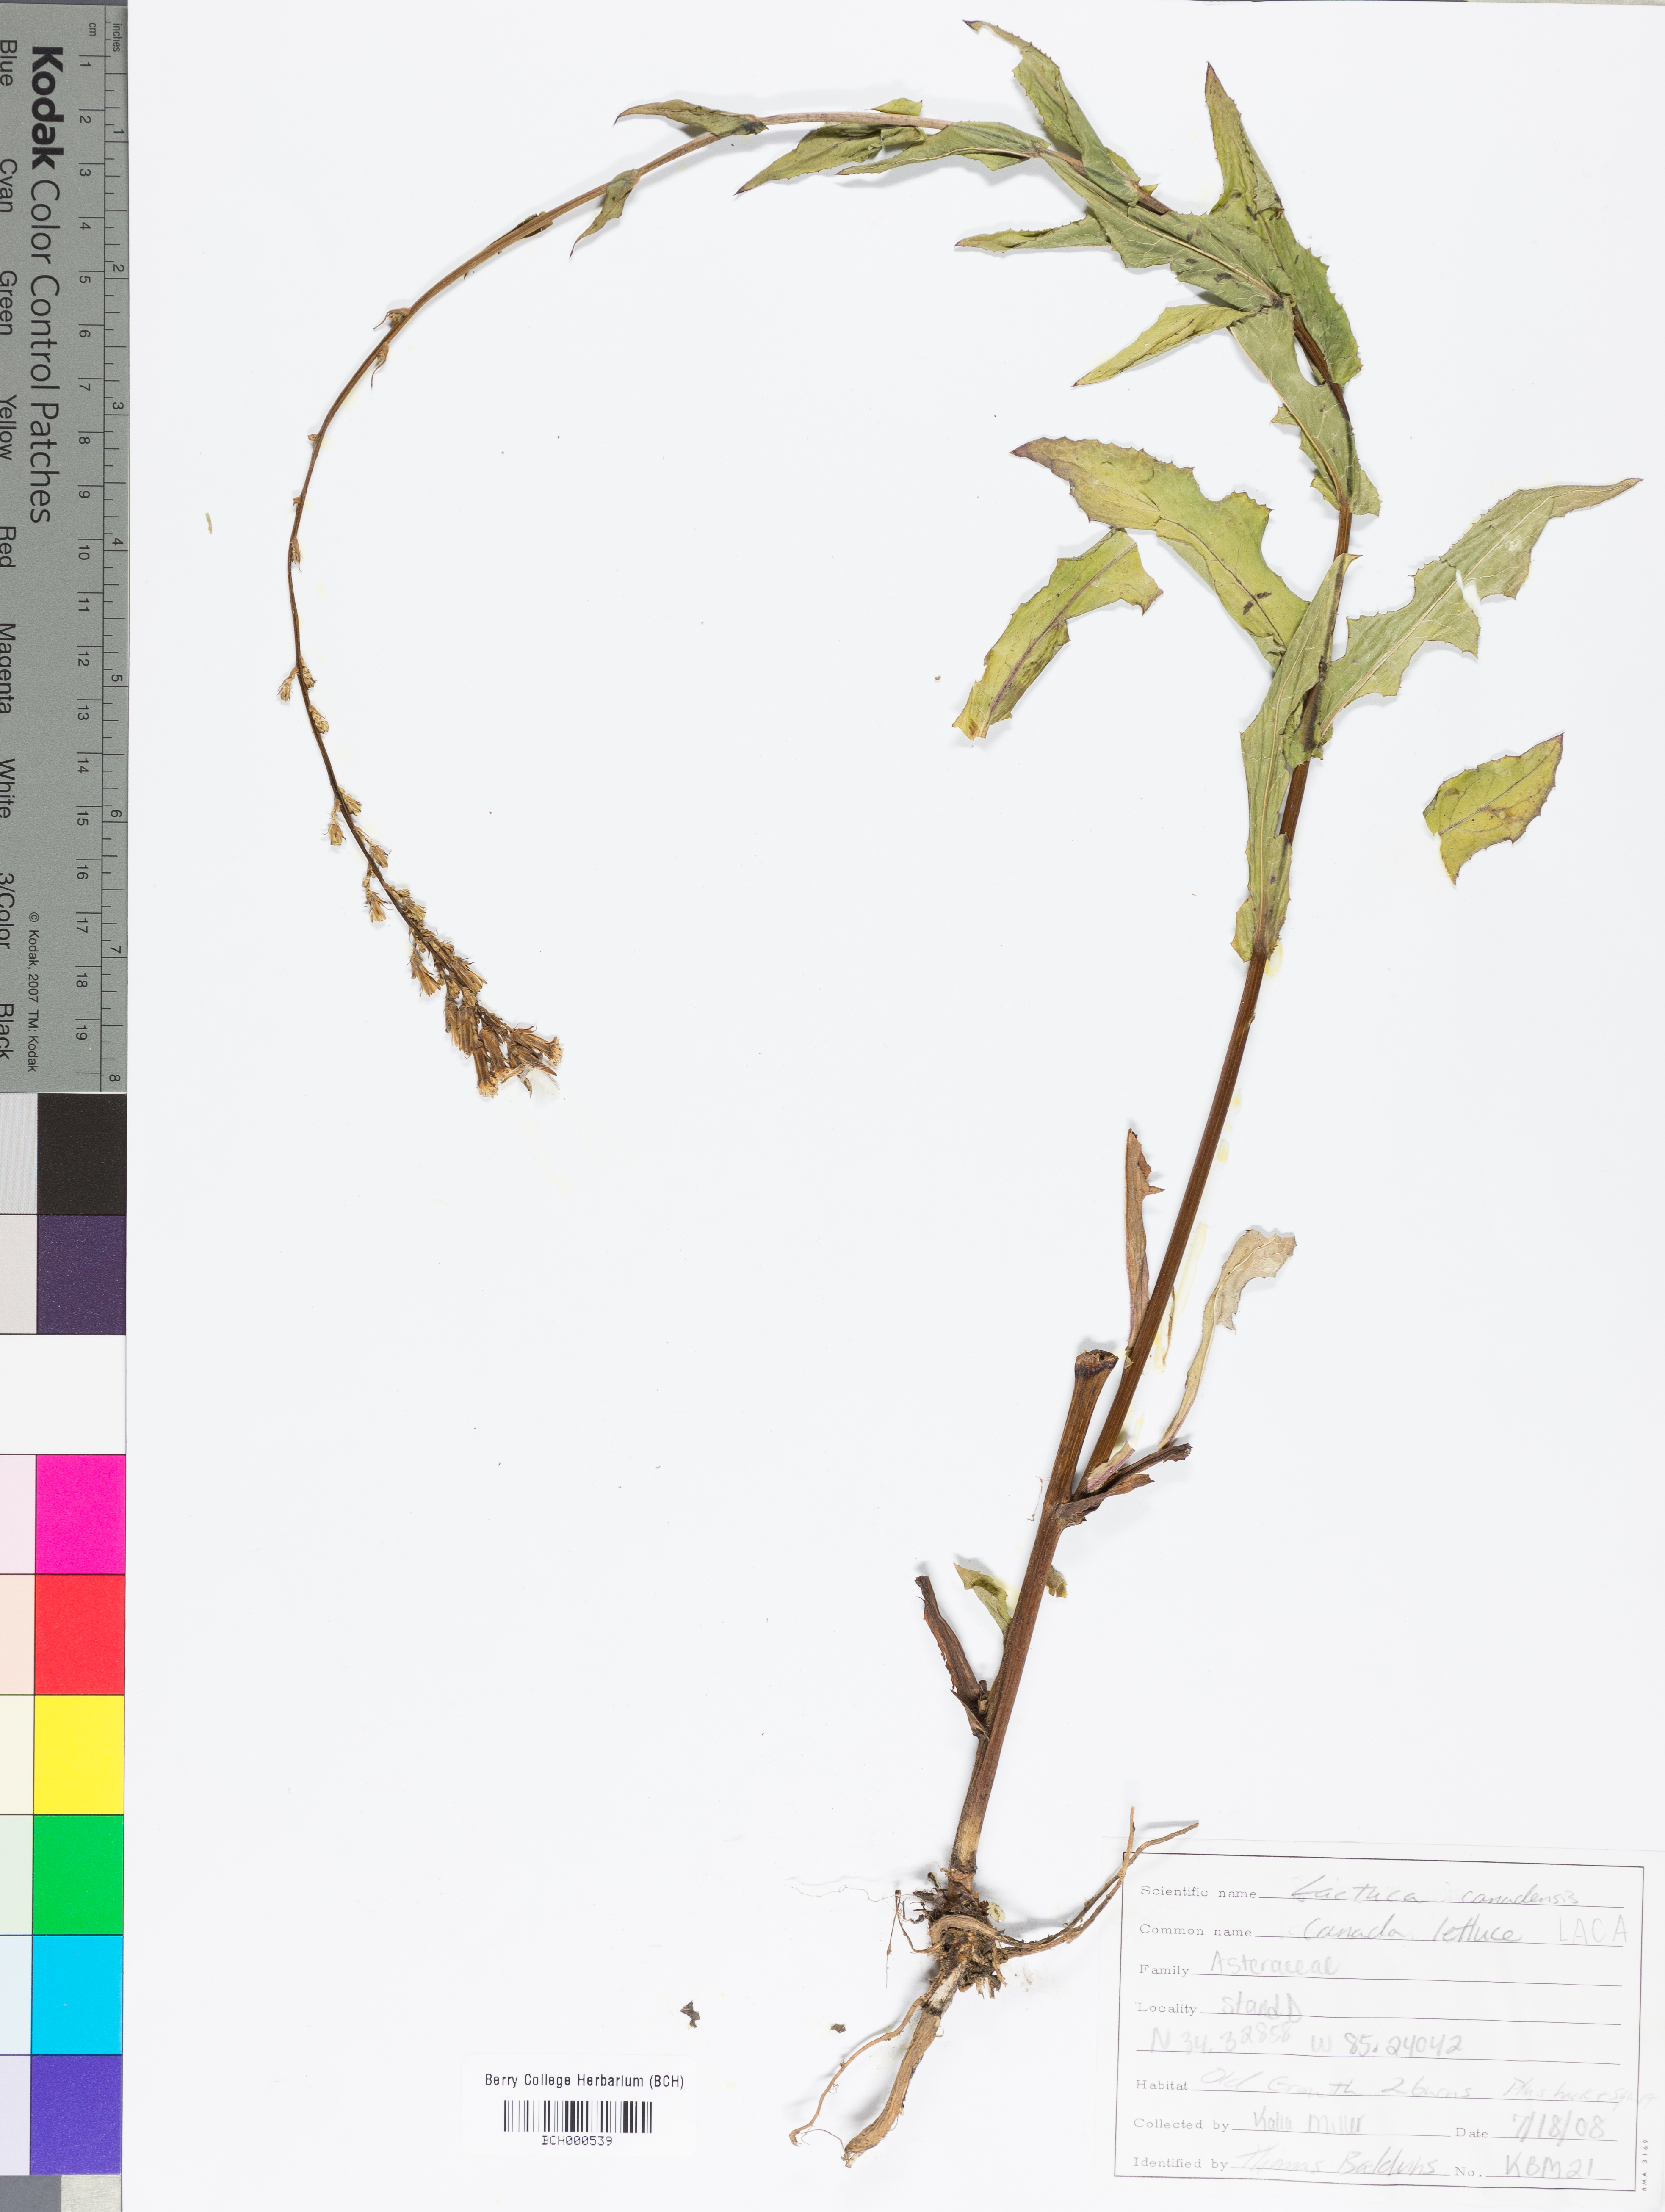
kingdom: Plantae
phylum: Tracheophyta
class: Magnoliopsida
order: Asterales
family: Asteraceae
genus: Lactuca
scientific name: Lactuca canadensis
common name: Canada lettuce
